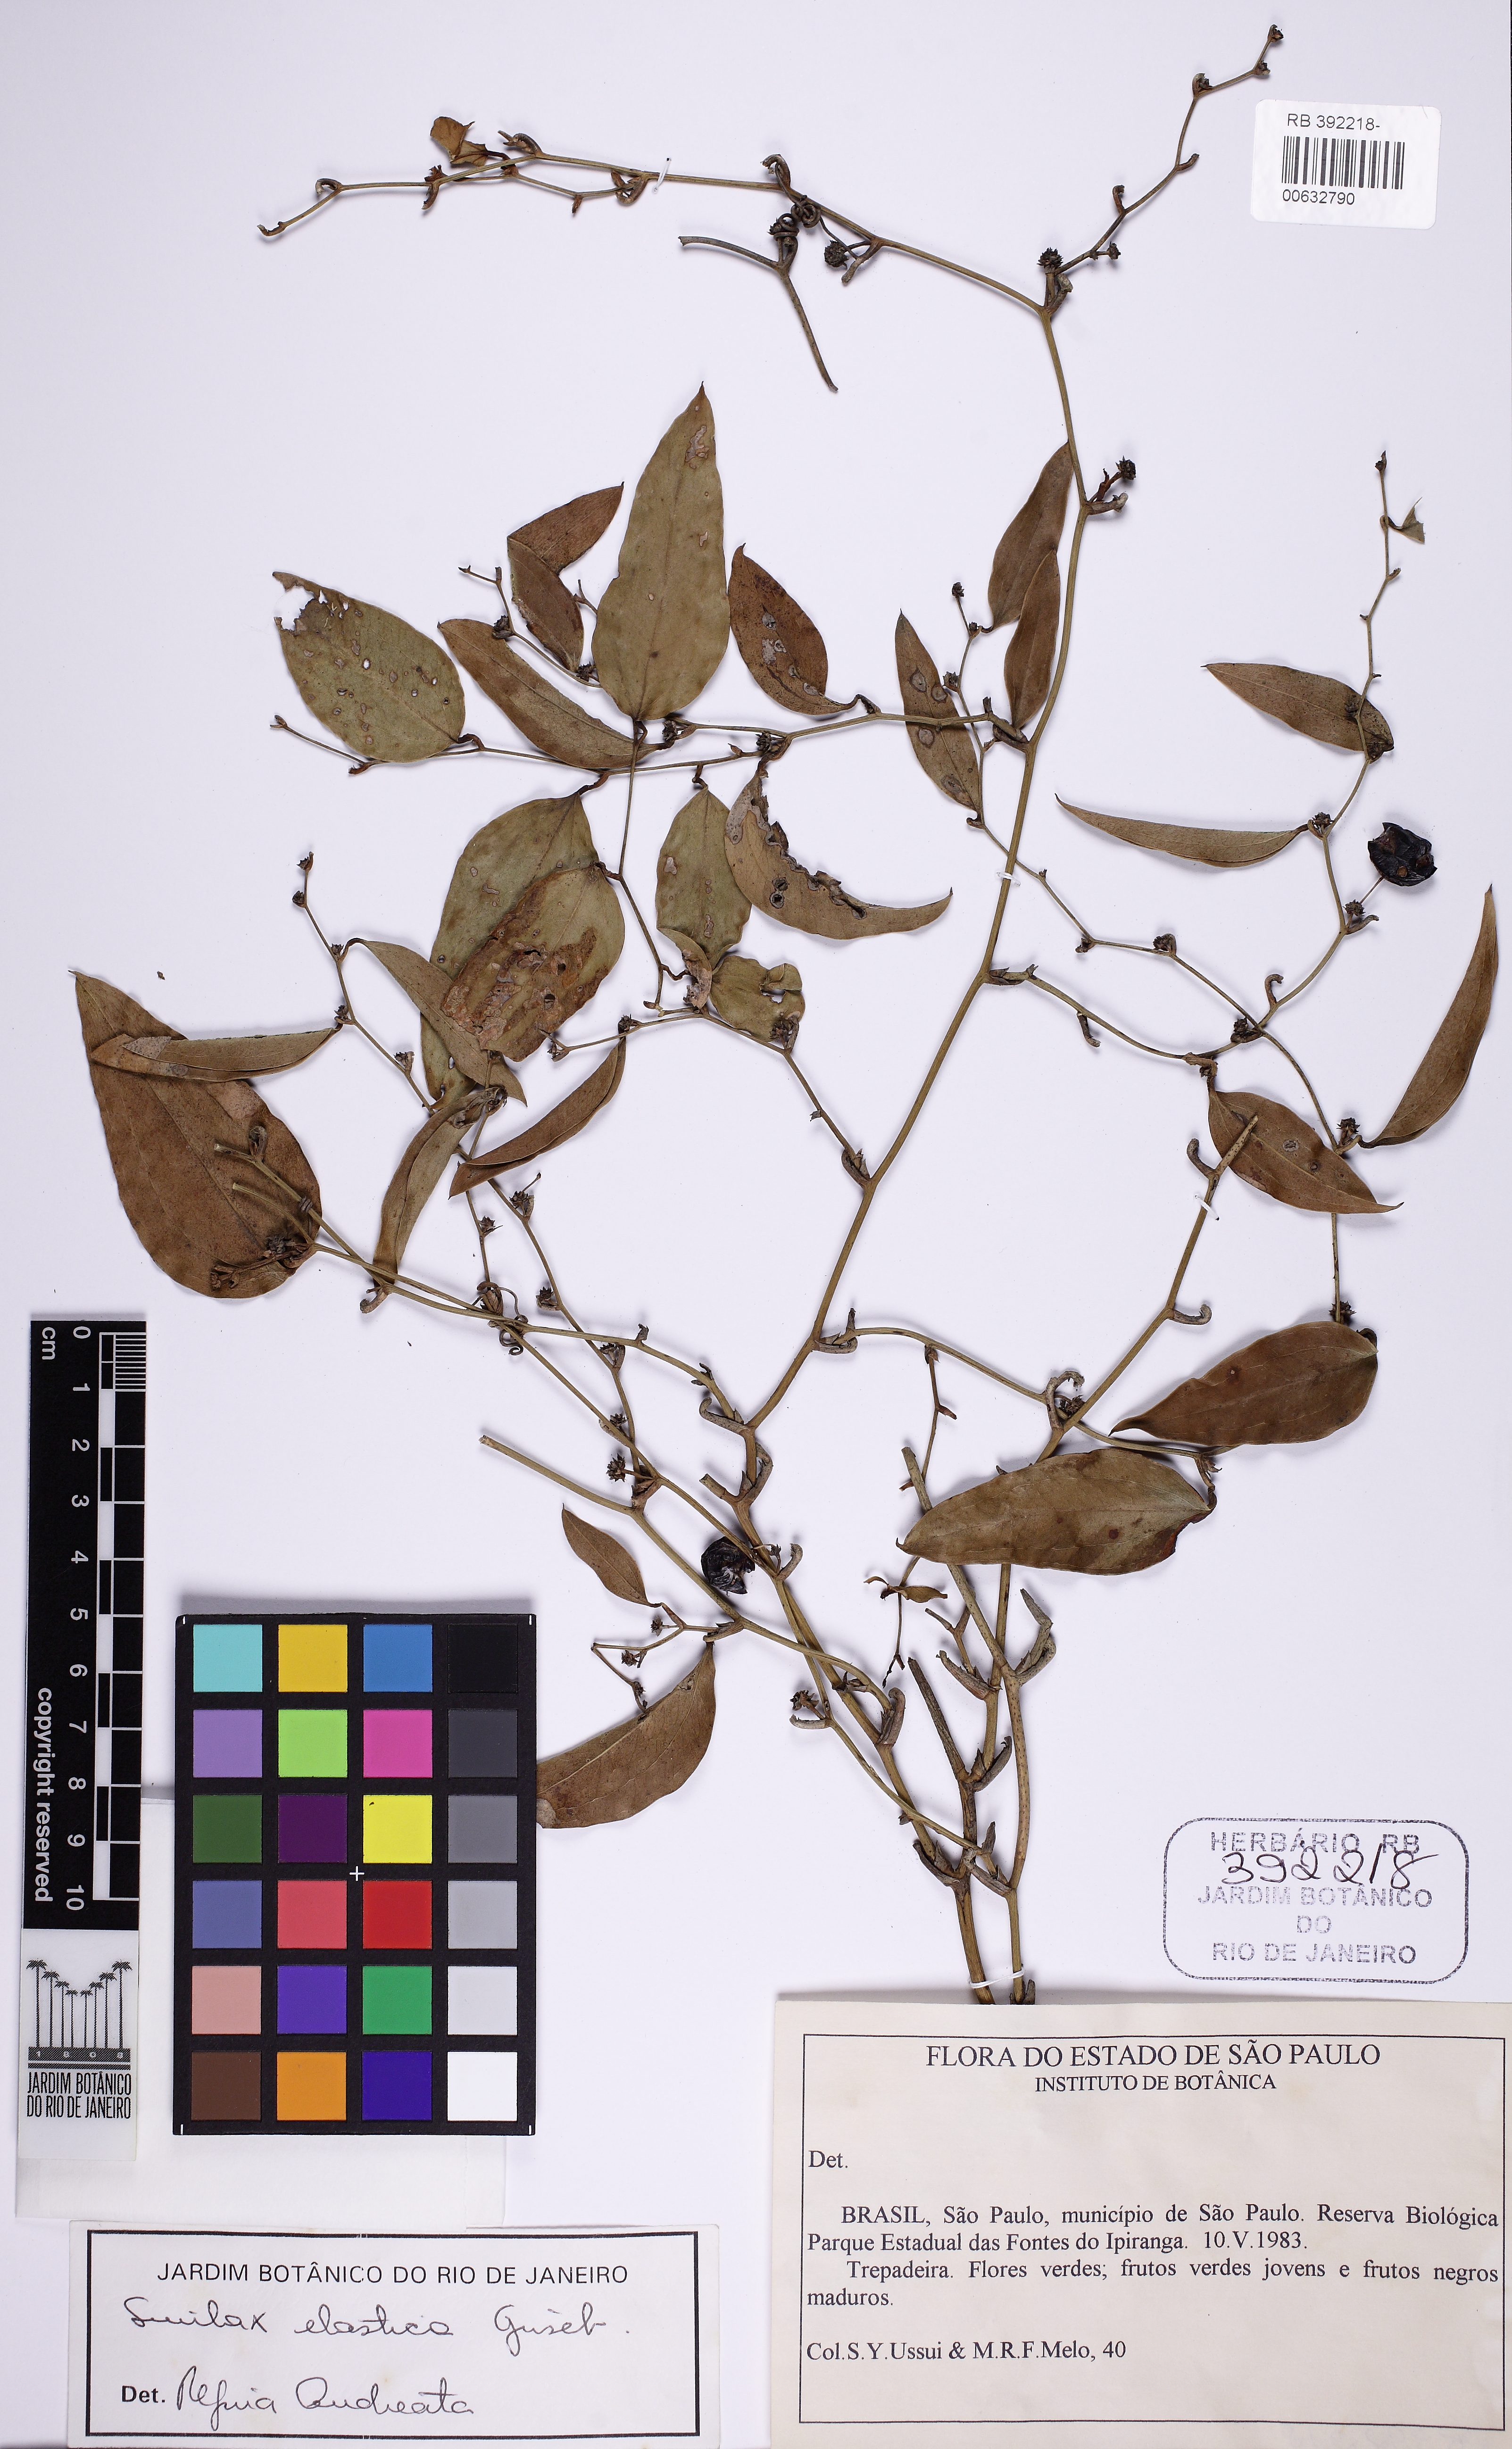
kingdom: Plantae
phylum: Tracheophyta
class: Liliopsida
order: Liliales
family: Smilacaceae
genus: Smilax
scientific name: Smilax elastica
